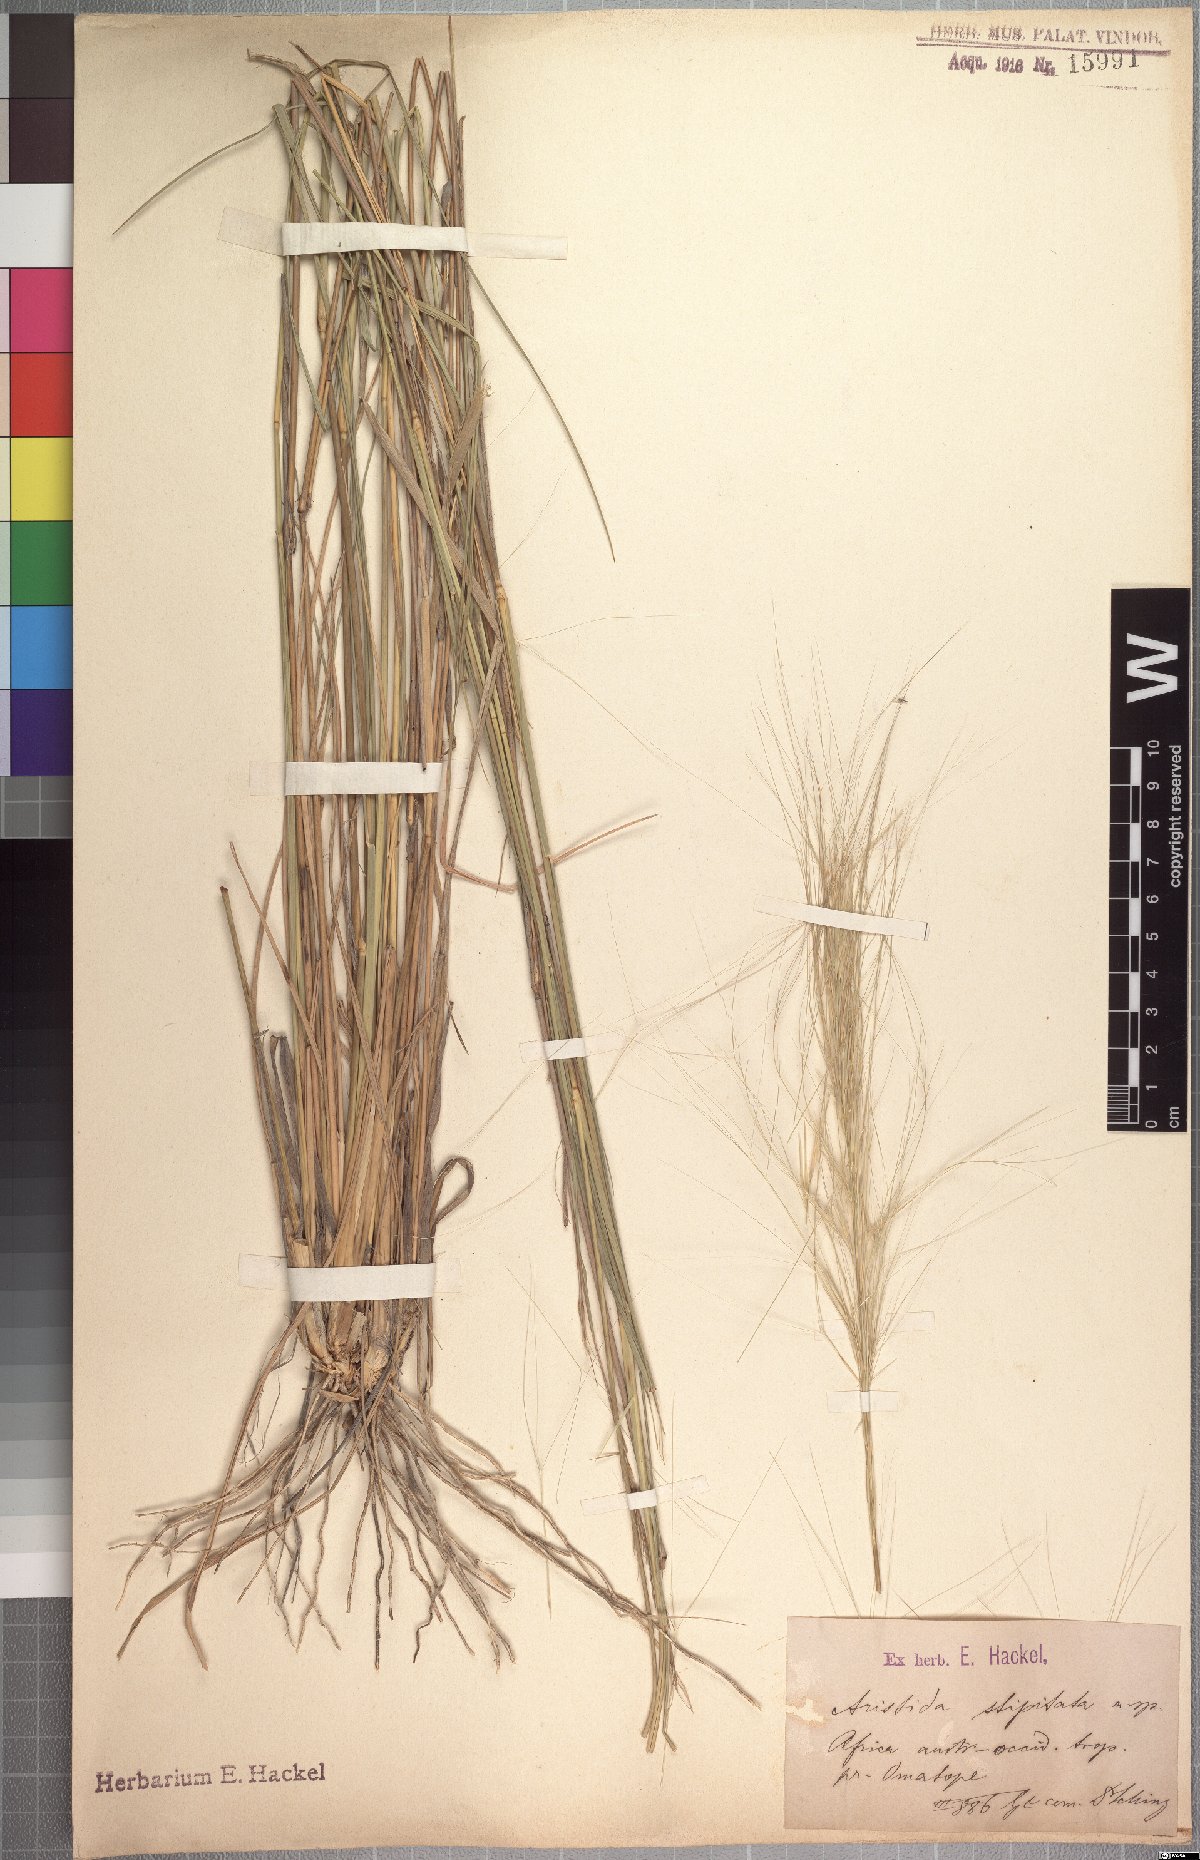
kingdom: Plantae
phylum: Tracheophyta
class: Liliopsida
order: Poales
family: Poaceae
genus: Aristida
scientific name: Aristida stipitata
